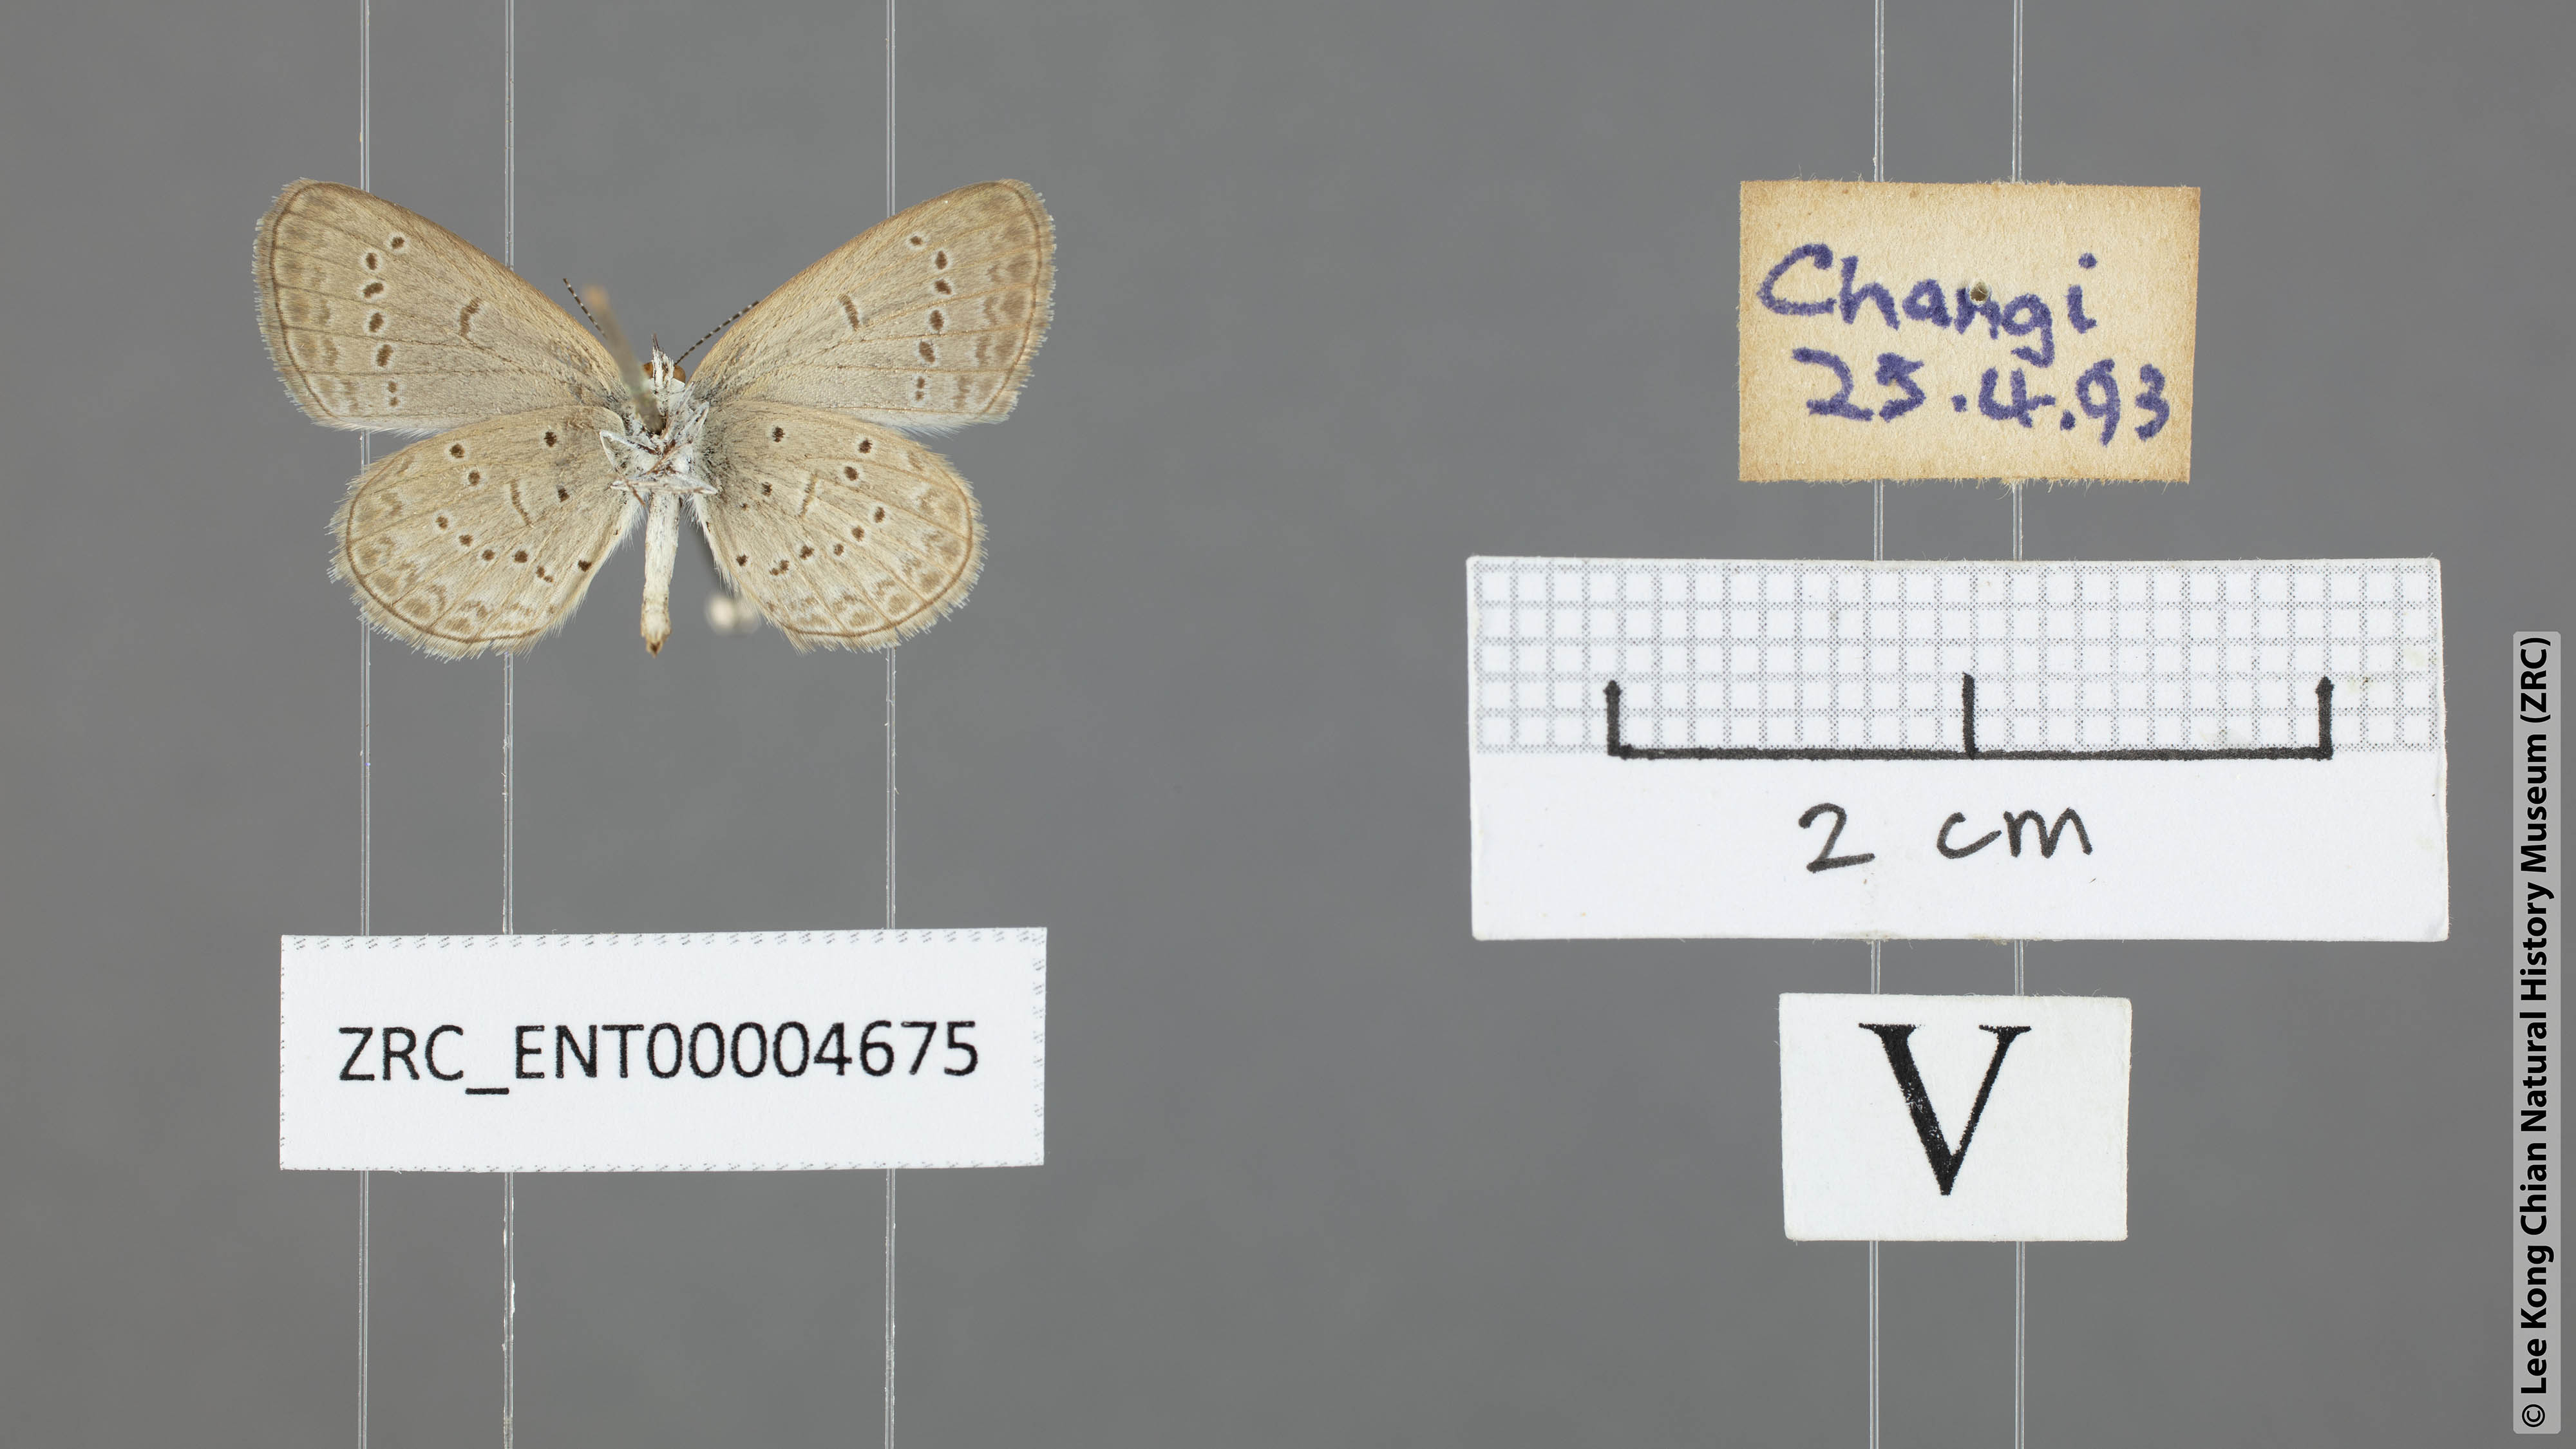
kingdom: Animalia
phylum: Arthropoda
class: Insecta
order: Lepidoptera
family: Lycaenidae
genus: Zizina
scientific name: Zizina otis
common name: Lesser grass blue
